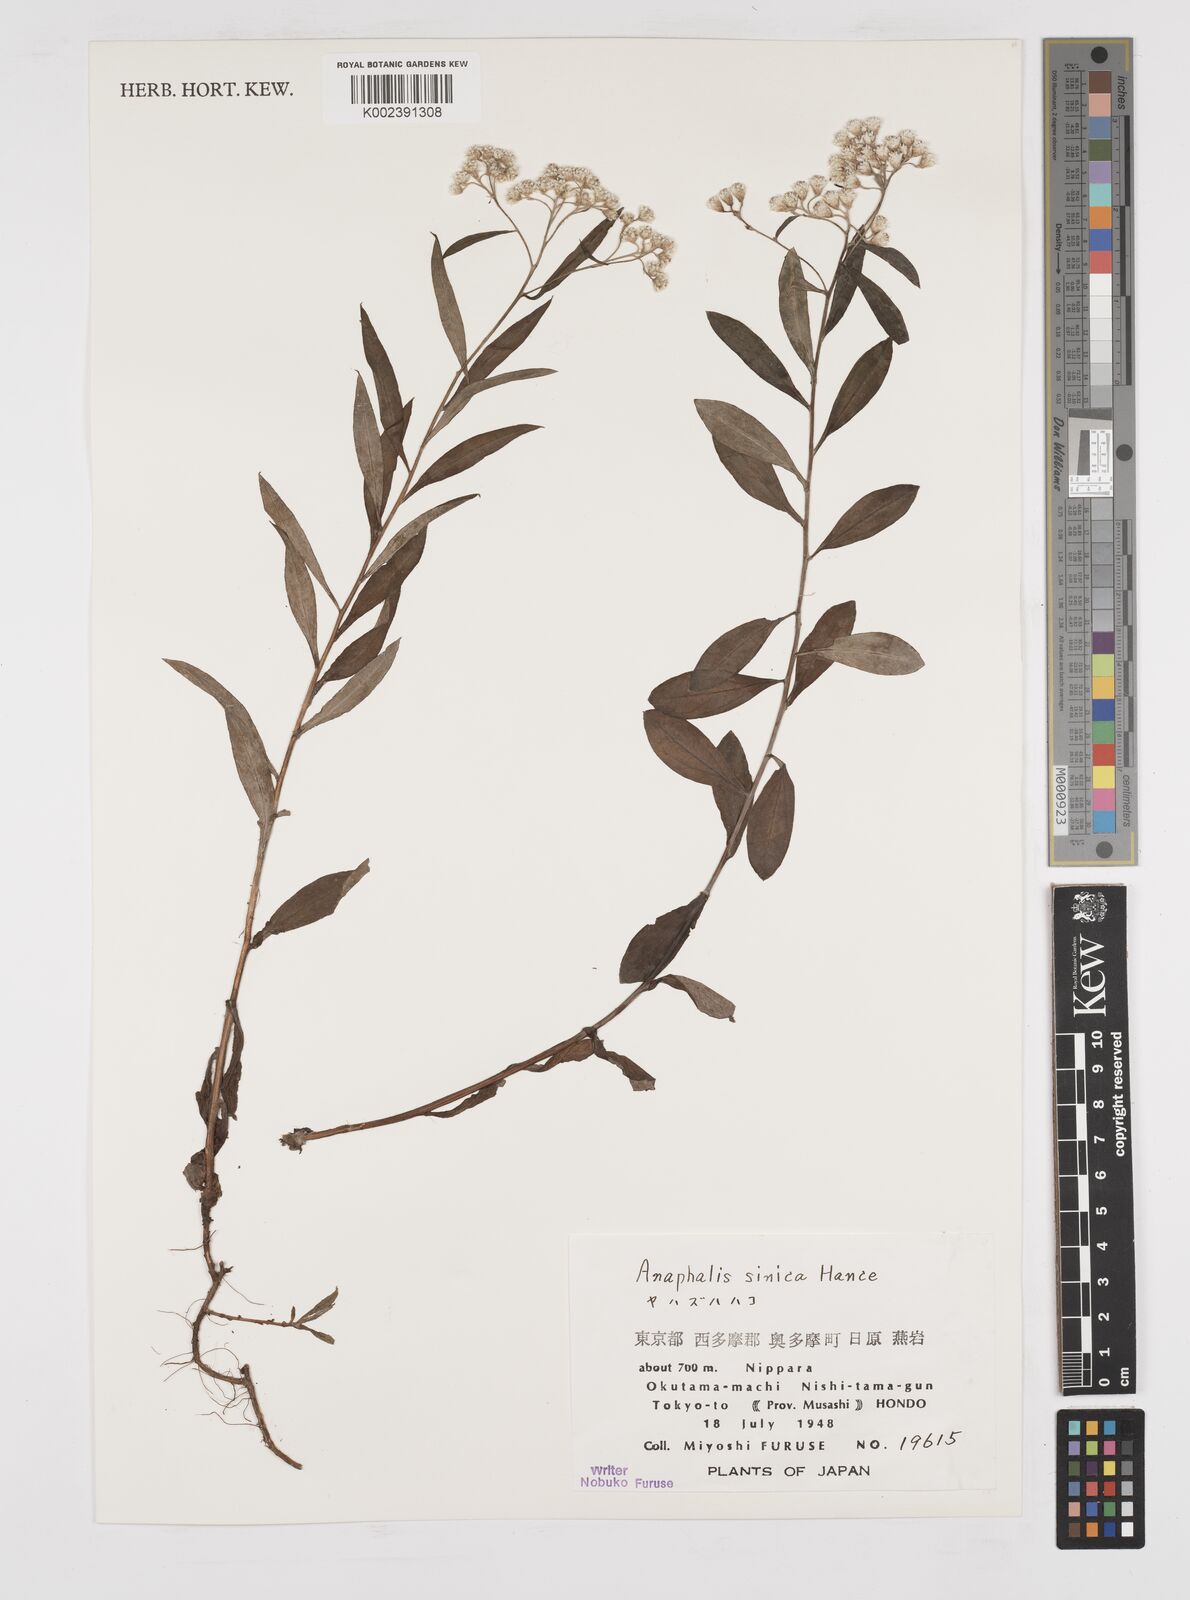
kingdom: Plantae
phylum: Tracheophyta
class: Magnoliopsida
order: Asterales
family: Asteraceae
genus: Anaphalis
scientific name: Anaphalis sinica
